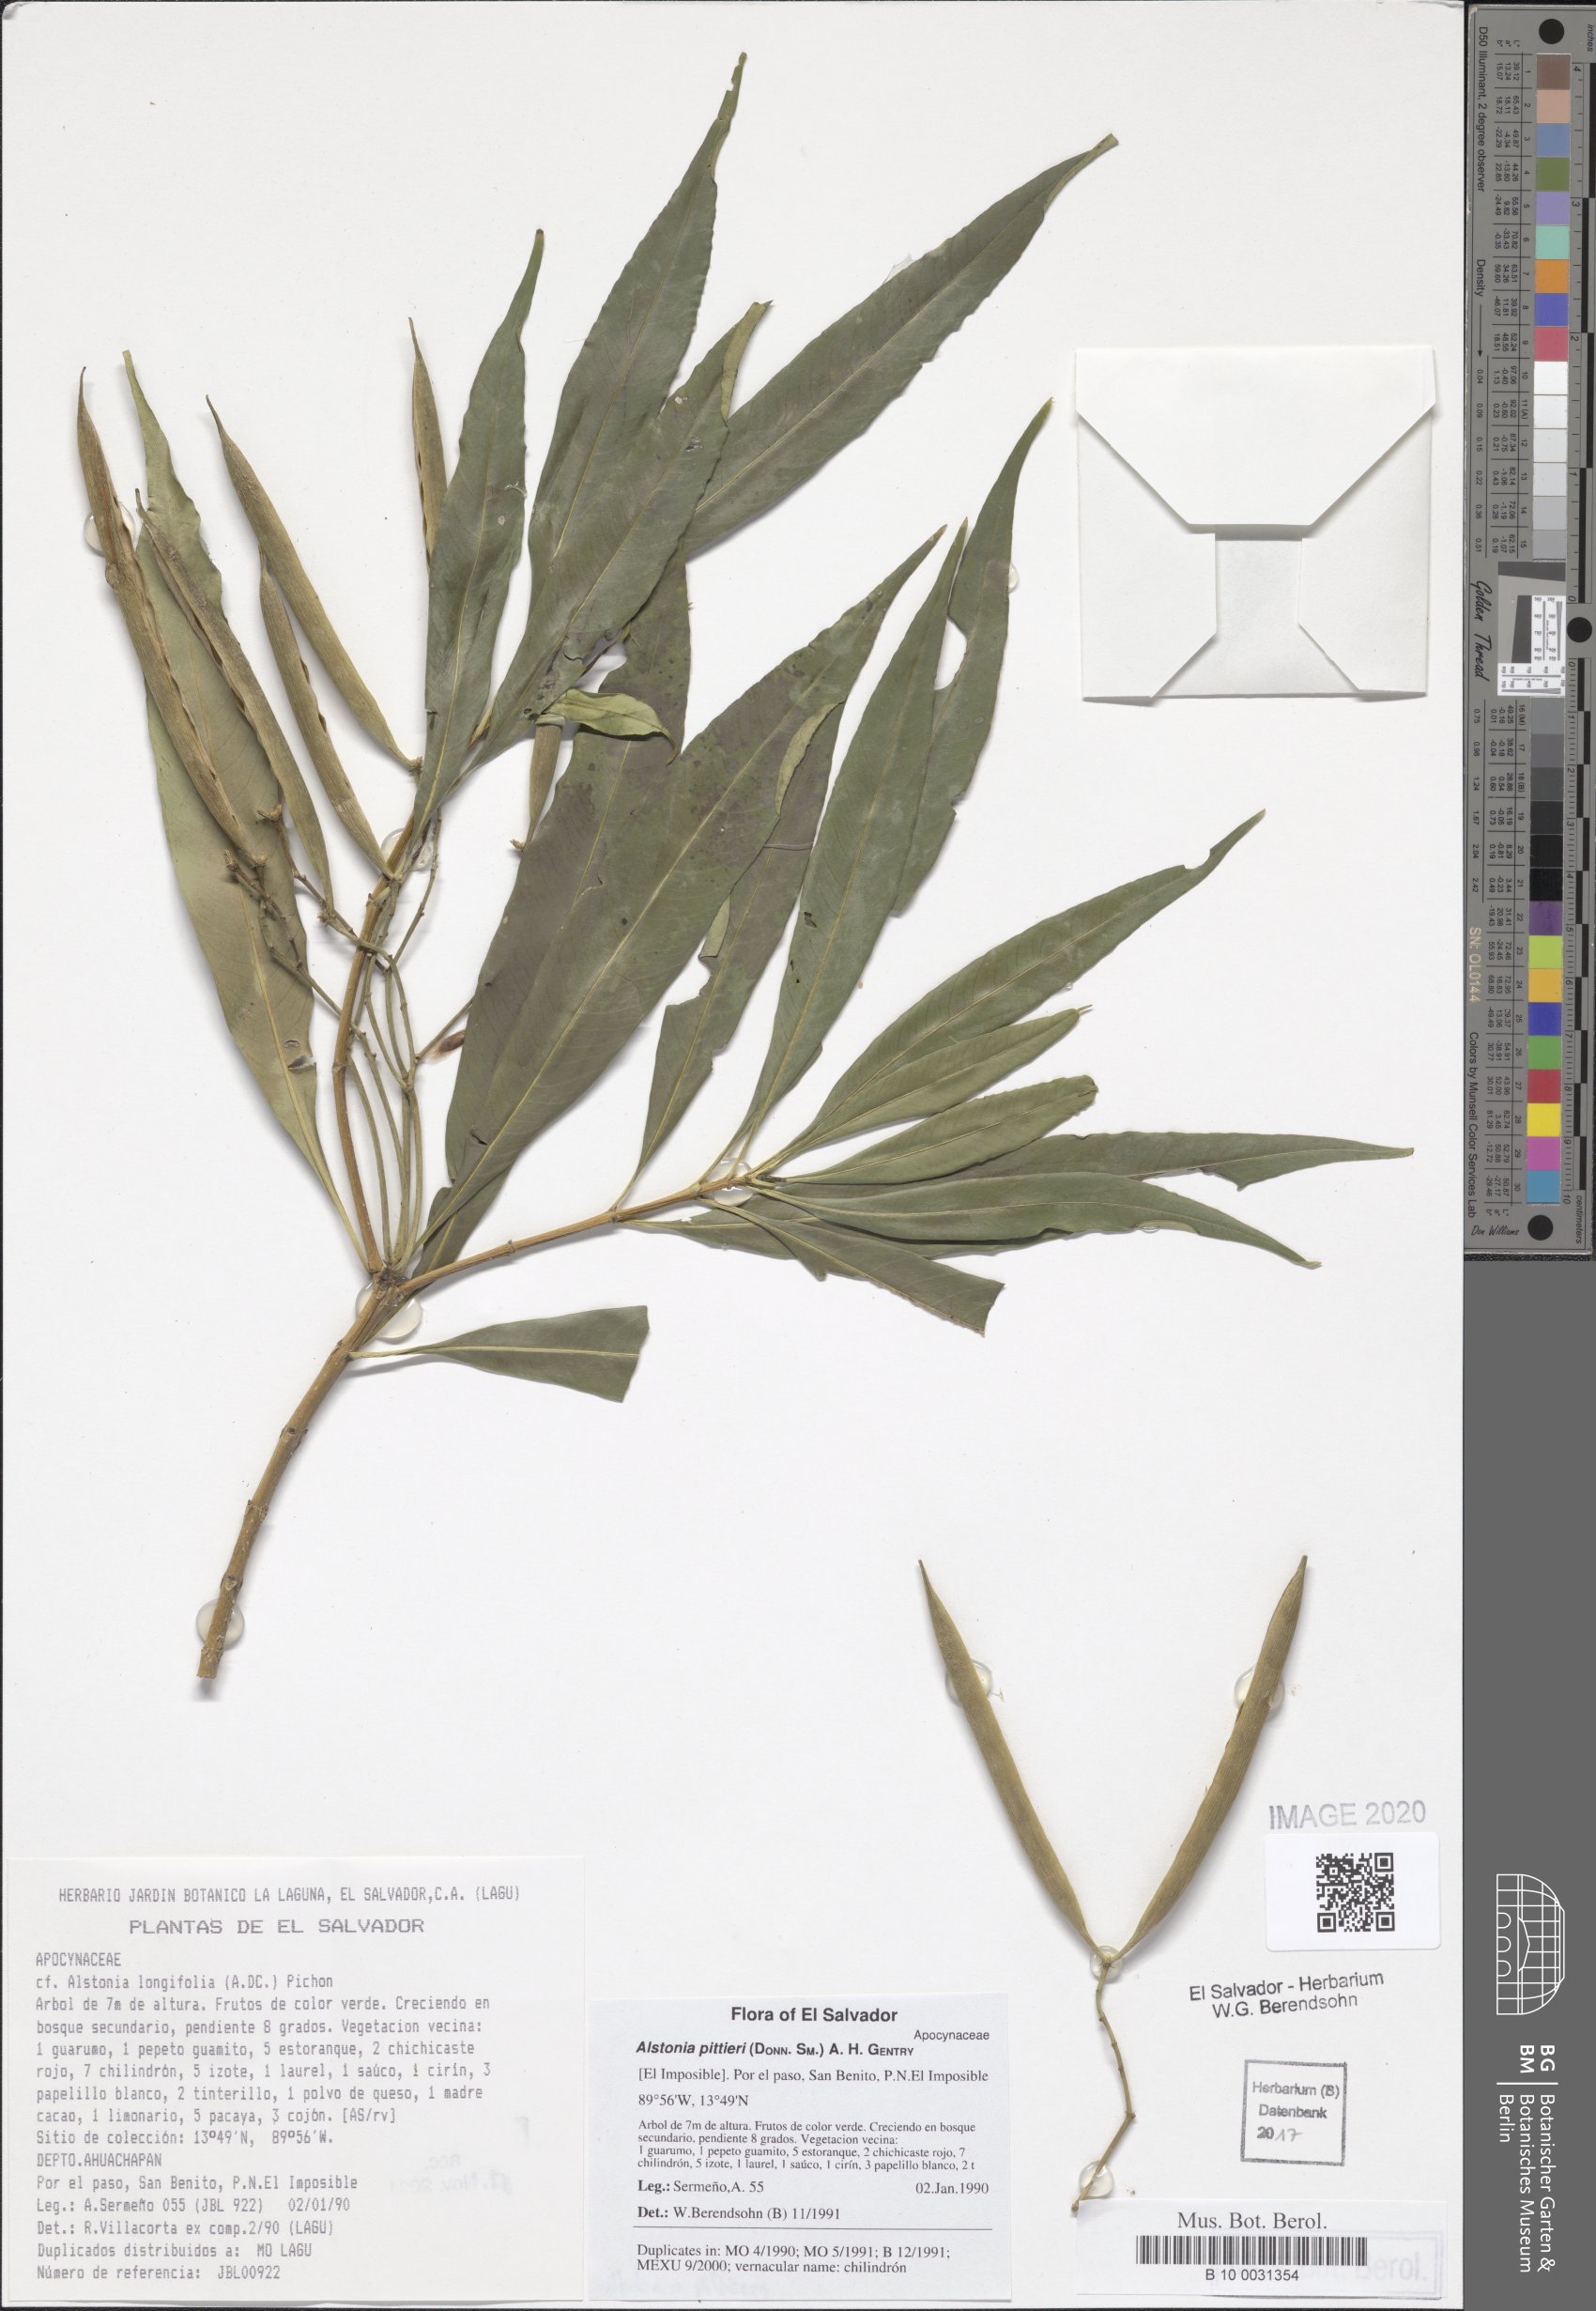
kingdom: Plantae
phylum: Tracheophyta
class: Magnoliopsida
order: Gentianales
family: Apocynaceae
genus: Tonduzia
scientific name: Tonduzia longifolia
